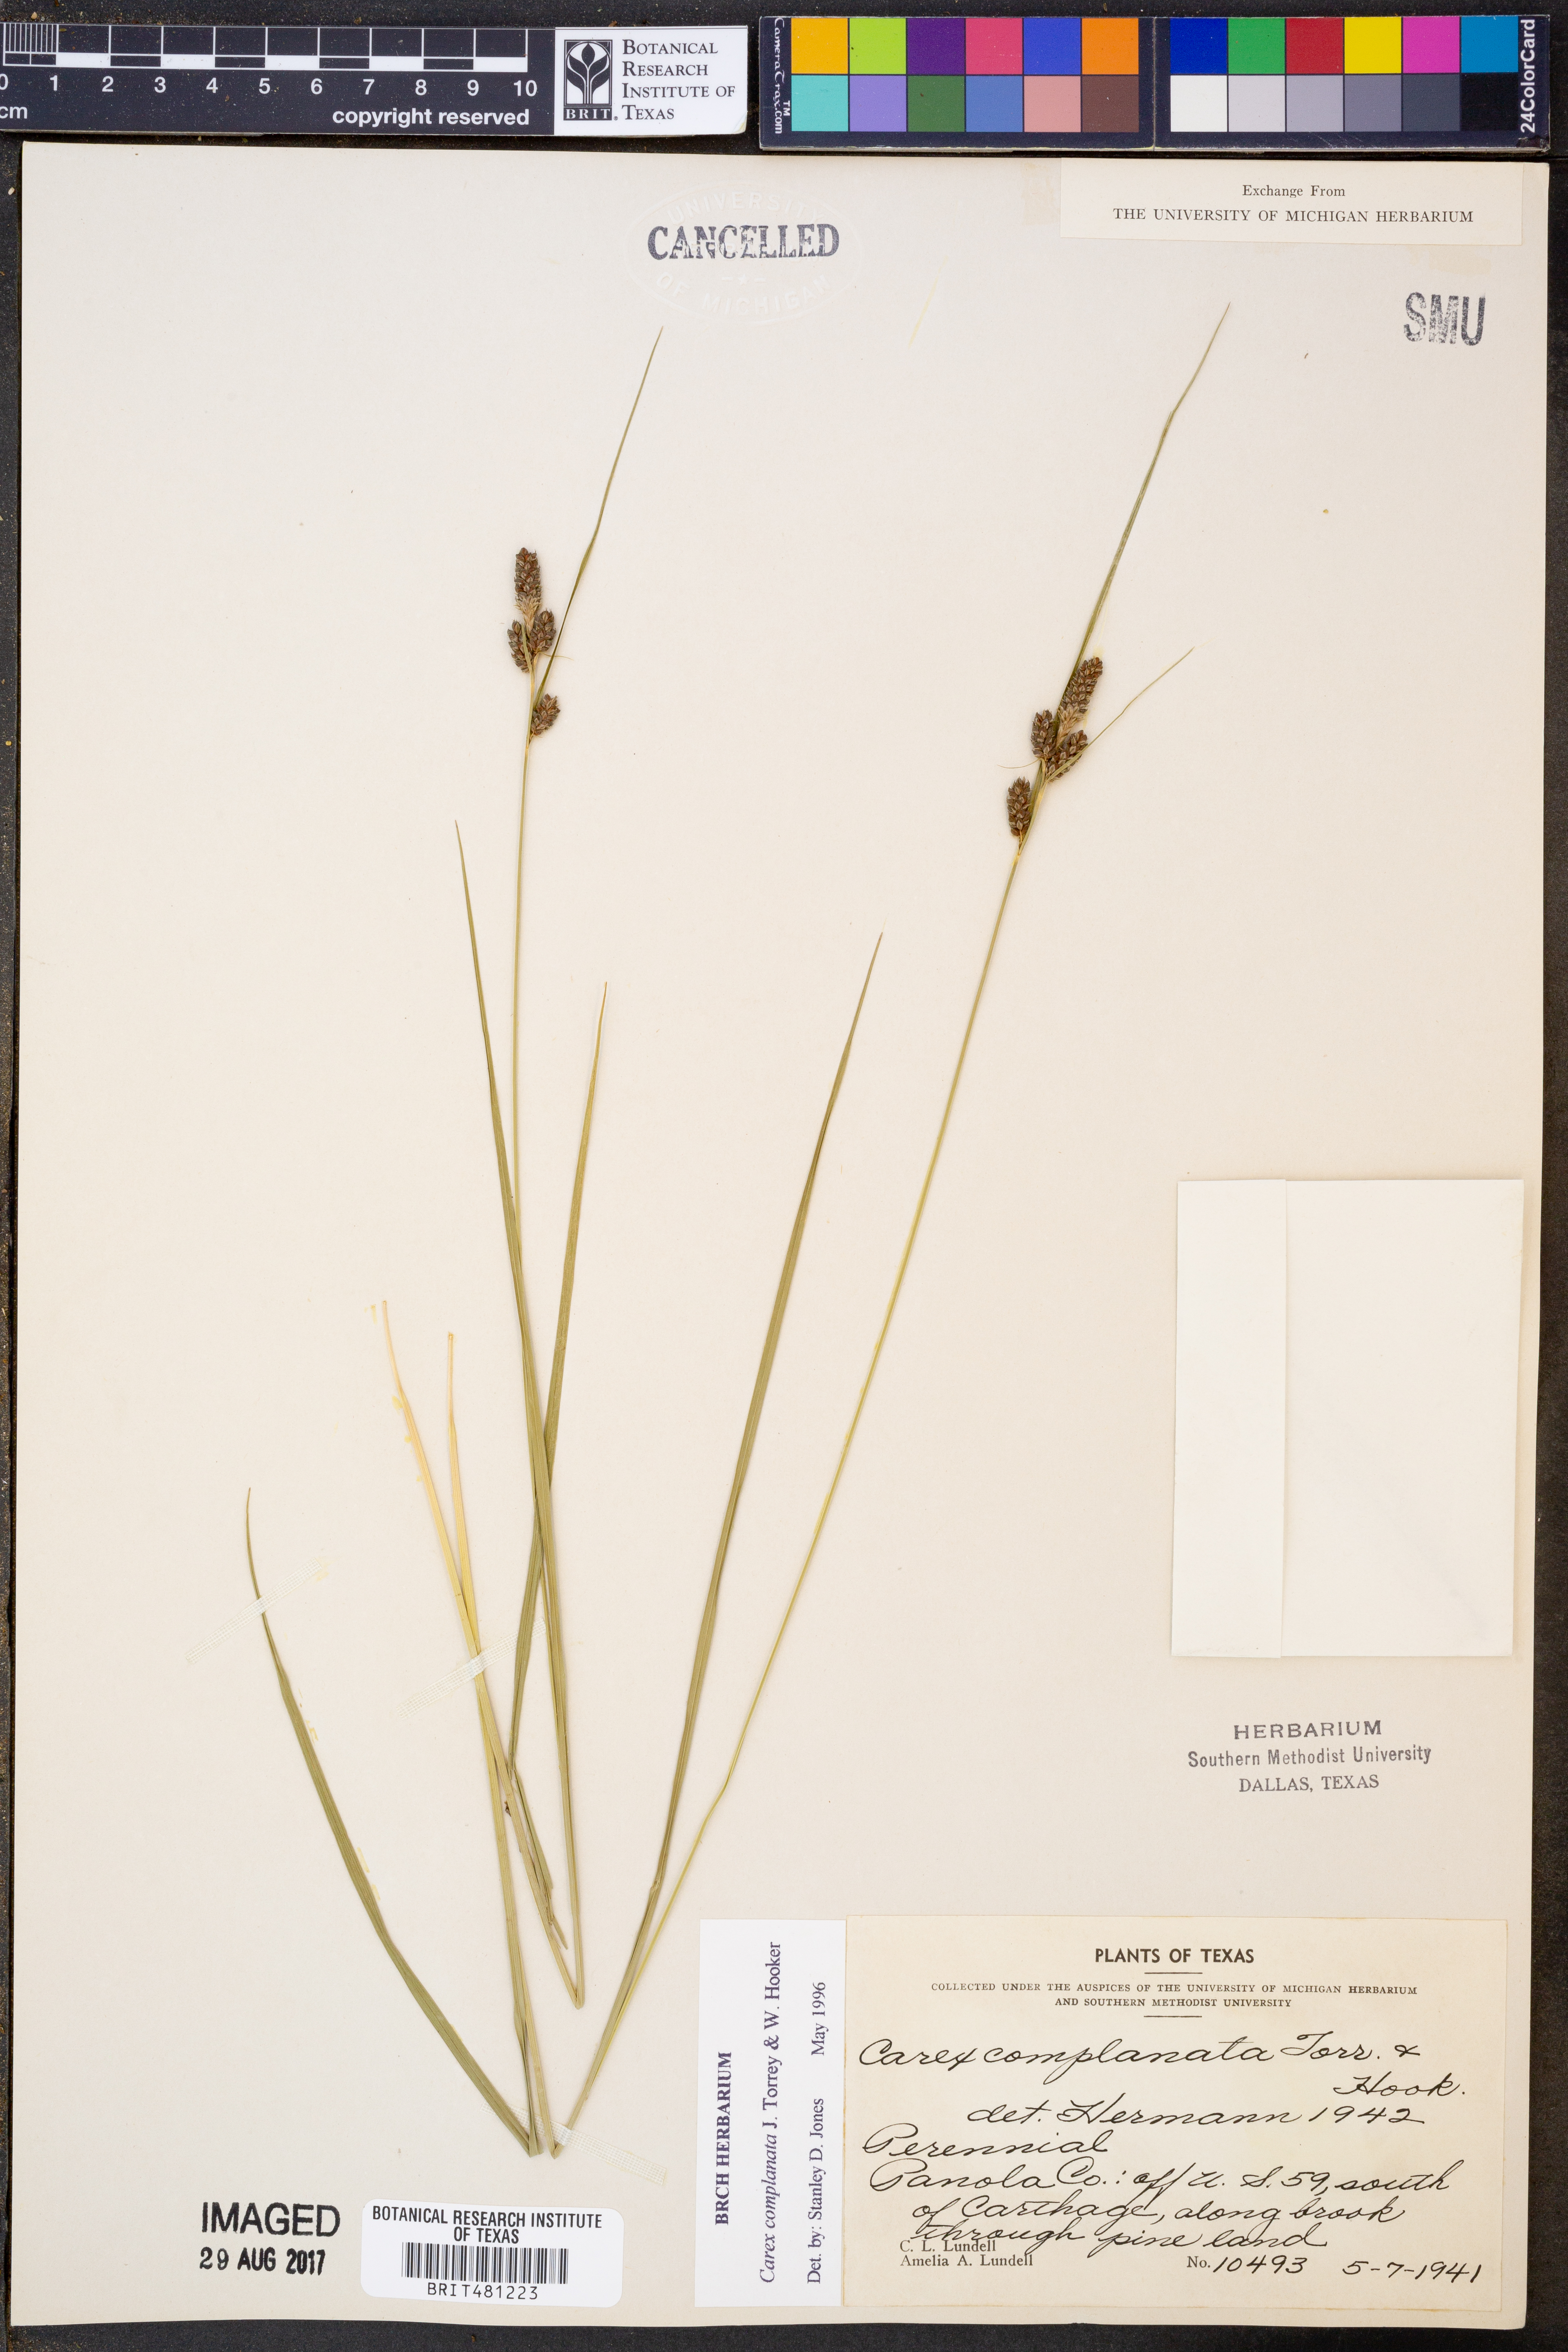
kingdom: Plantae
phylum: Tracheophyta
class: Liliopsida
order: Poales
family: Cyperaceae
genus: Carex
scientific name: Carex complanata
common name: Hirsute sedge
